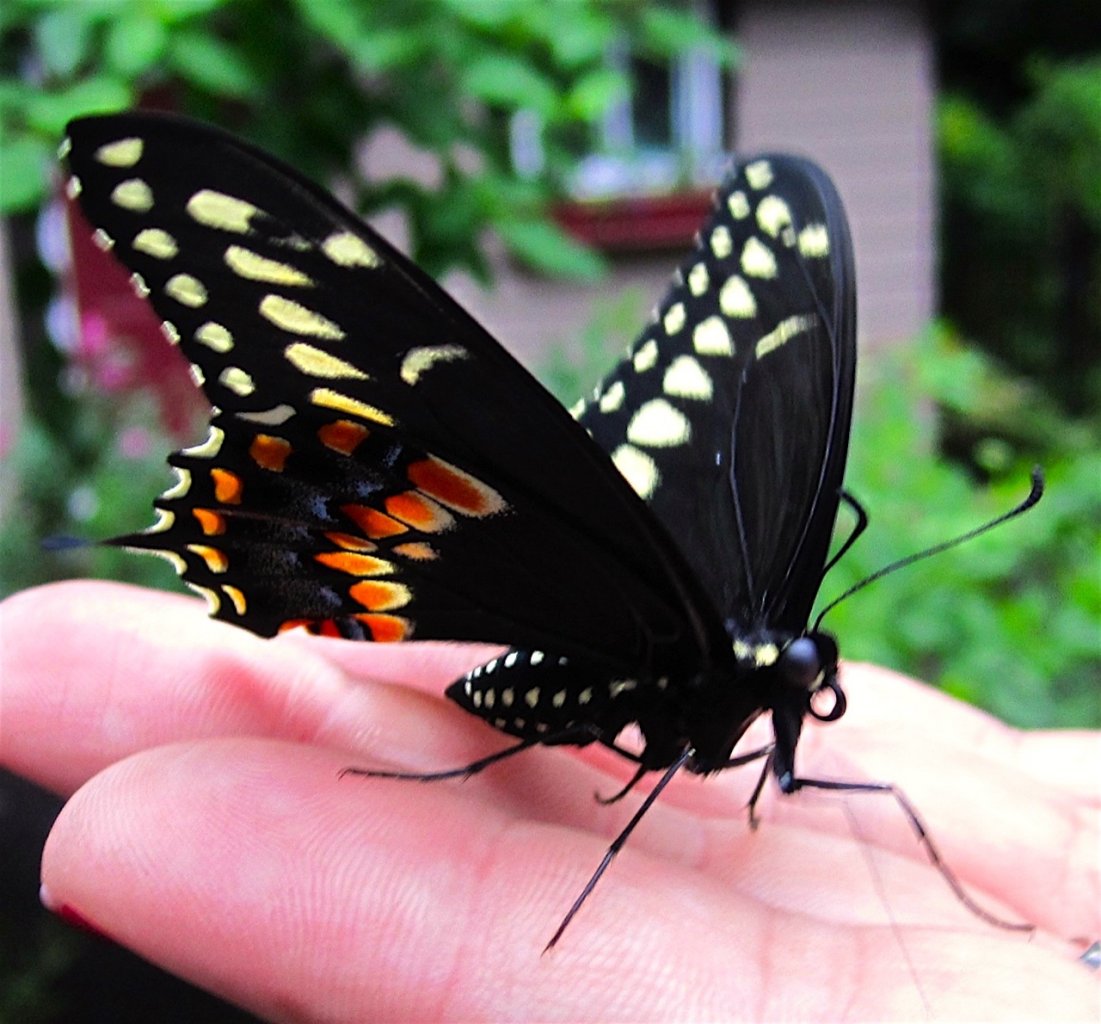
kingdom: Animalia
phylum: Arthropoda
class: Insecta
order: Lepidoptera
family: Papilionidae
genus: Papilio
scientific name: Papilio polyxenes
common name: Black Swallowtail
